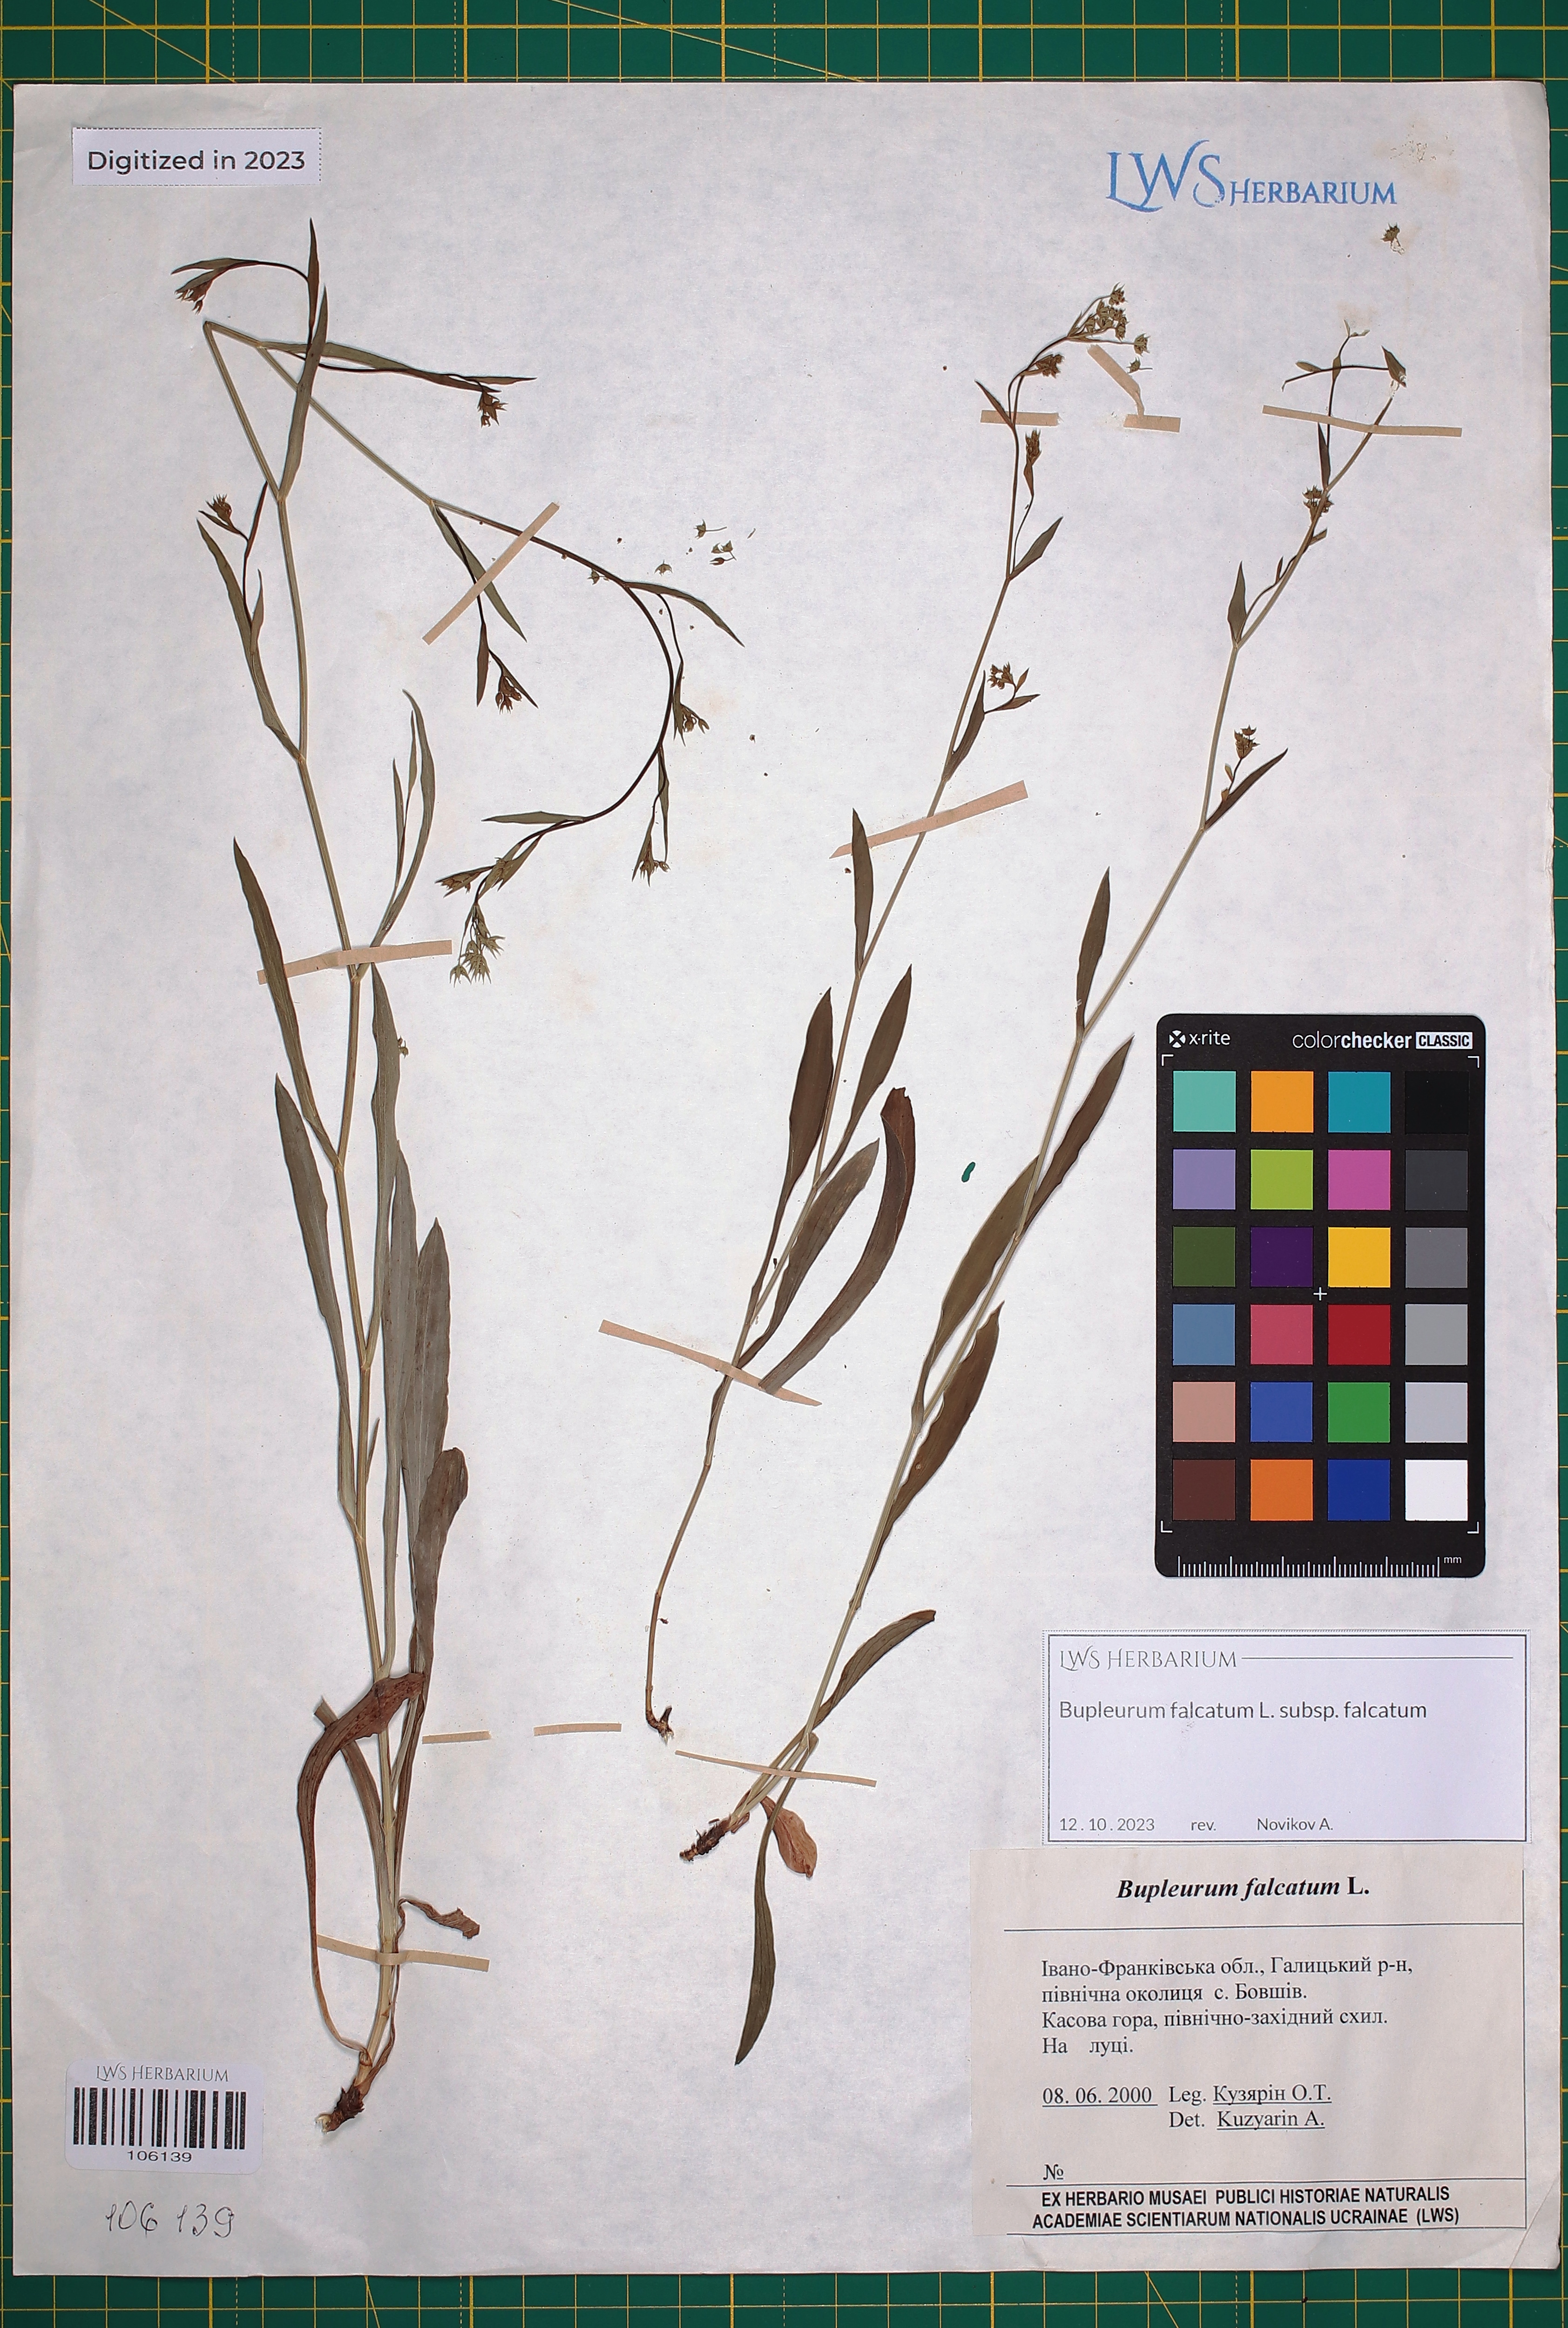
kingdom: Plantae
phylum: Tracheophyta
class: Magnoliopsida
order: Apiales
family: Apiaceae
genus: Bupleurum
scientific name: Bupleurum falcatum
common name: Sickle-leaved hare's-ear
